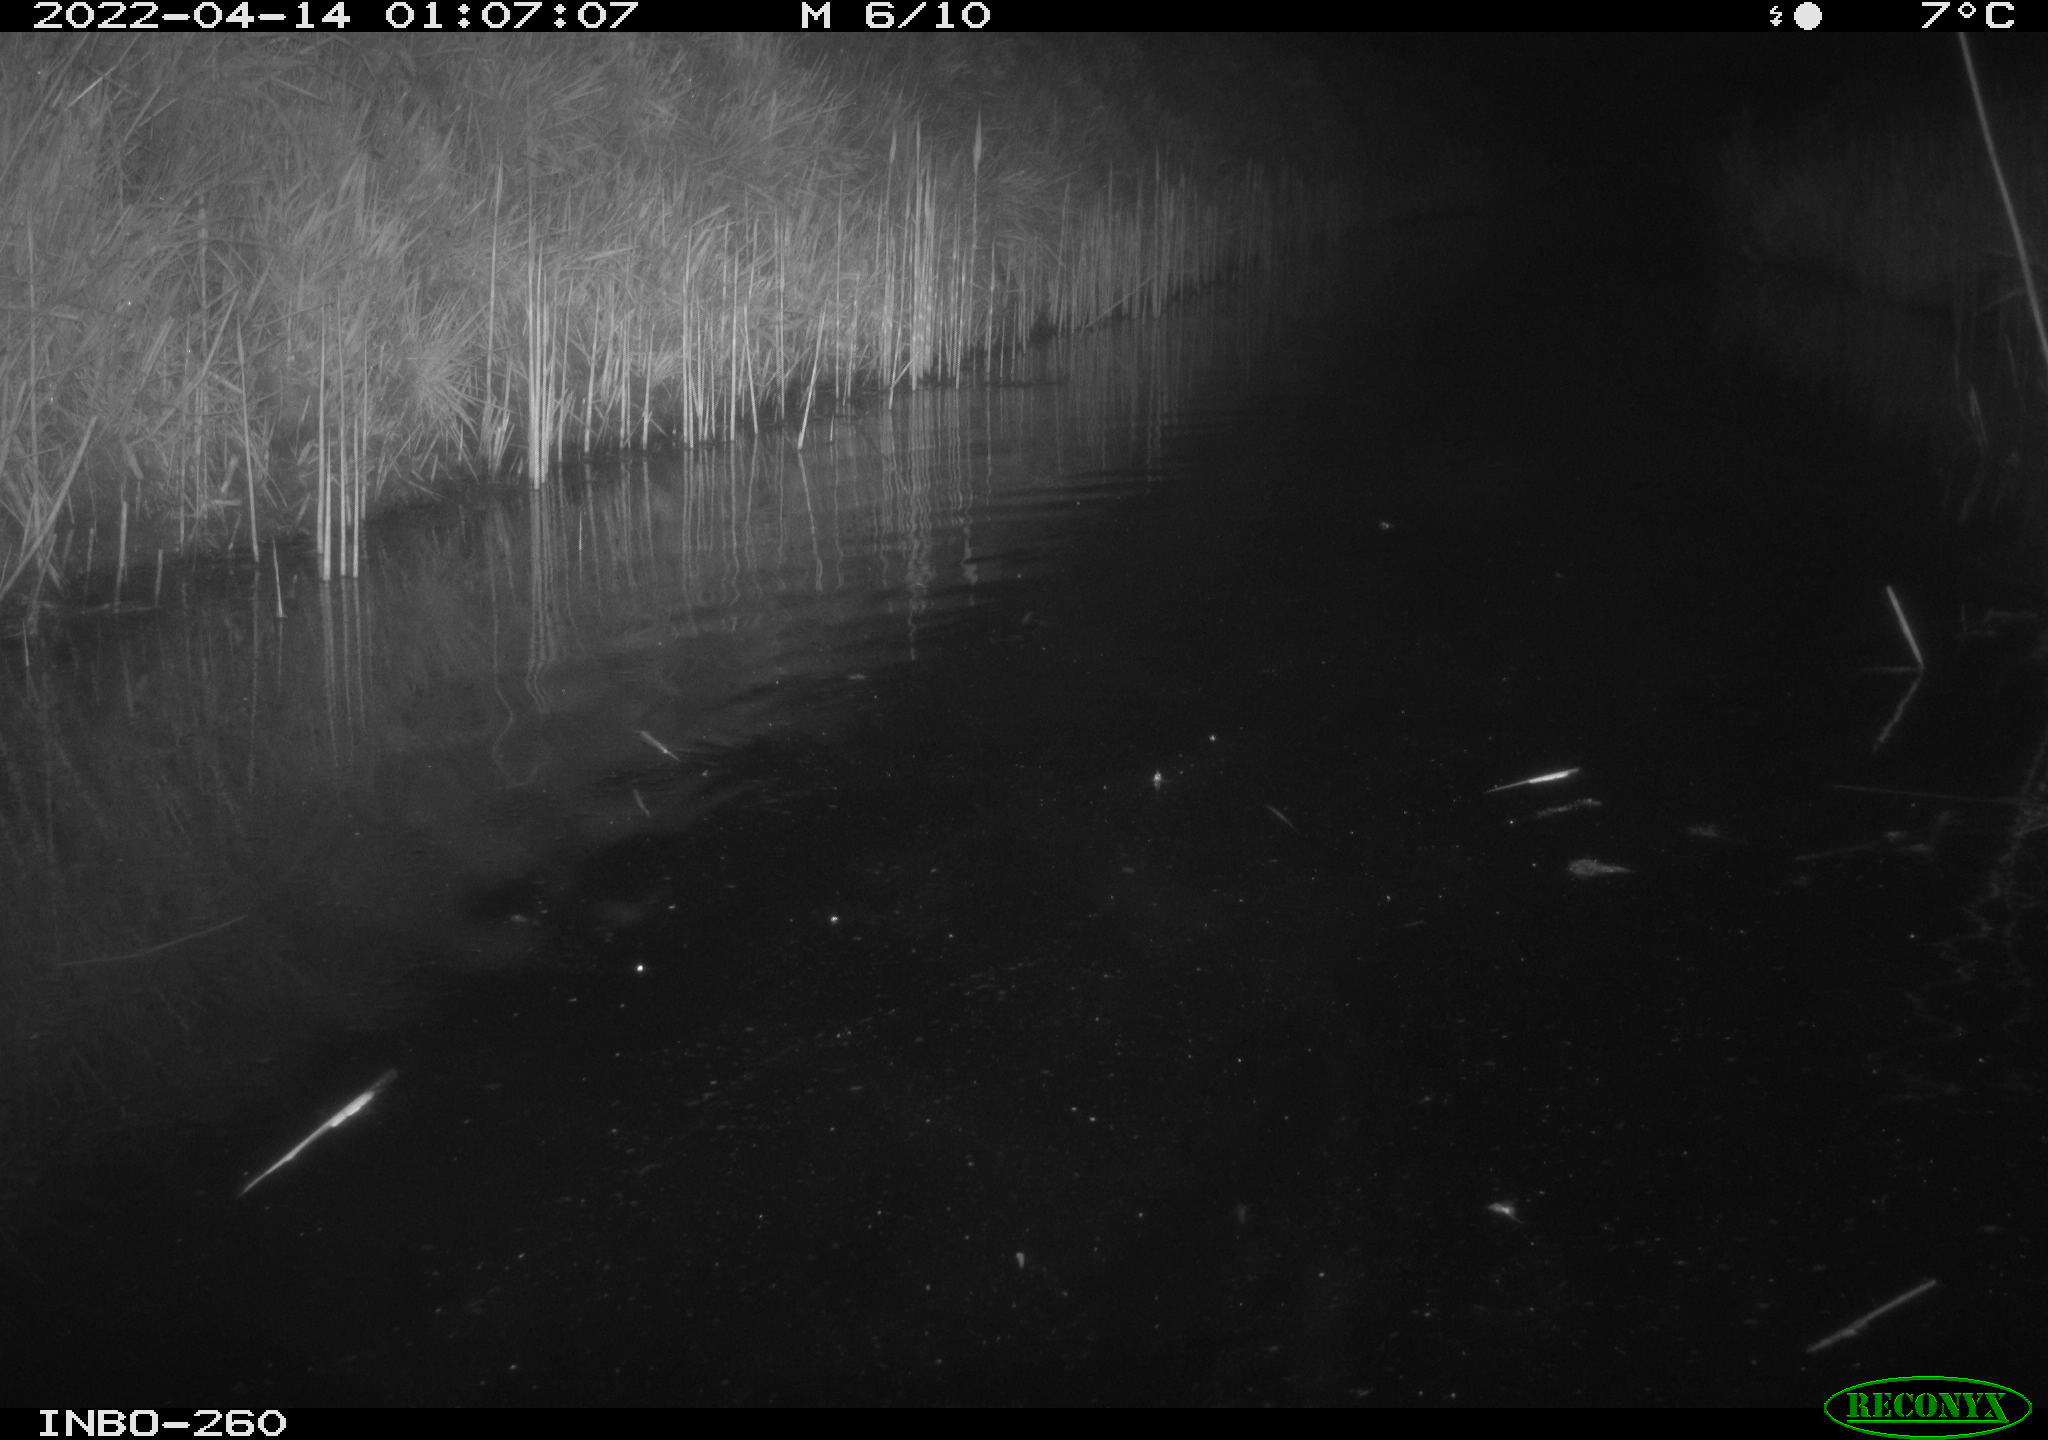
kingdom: Animalia
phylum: Chordata
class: Mammalia
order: Rodentia
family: Cricetidae
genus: Ondatra
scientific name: Ondatra zibethicus
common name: Muskrat
